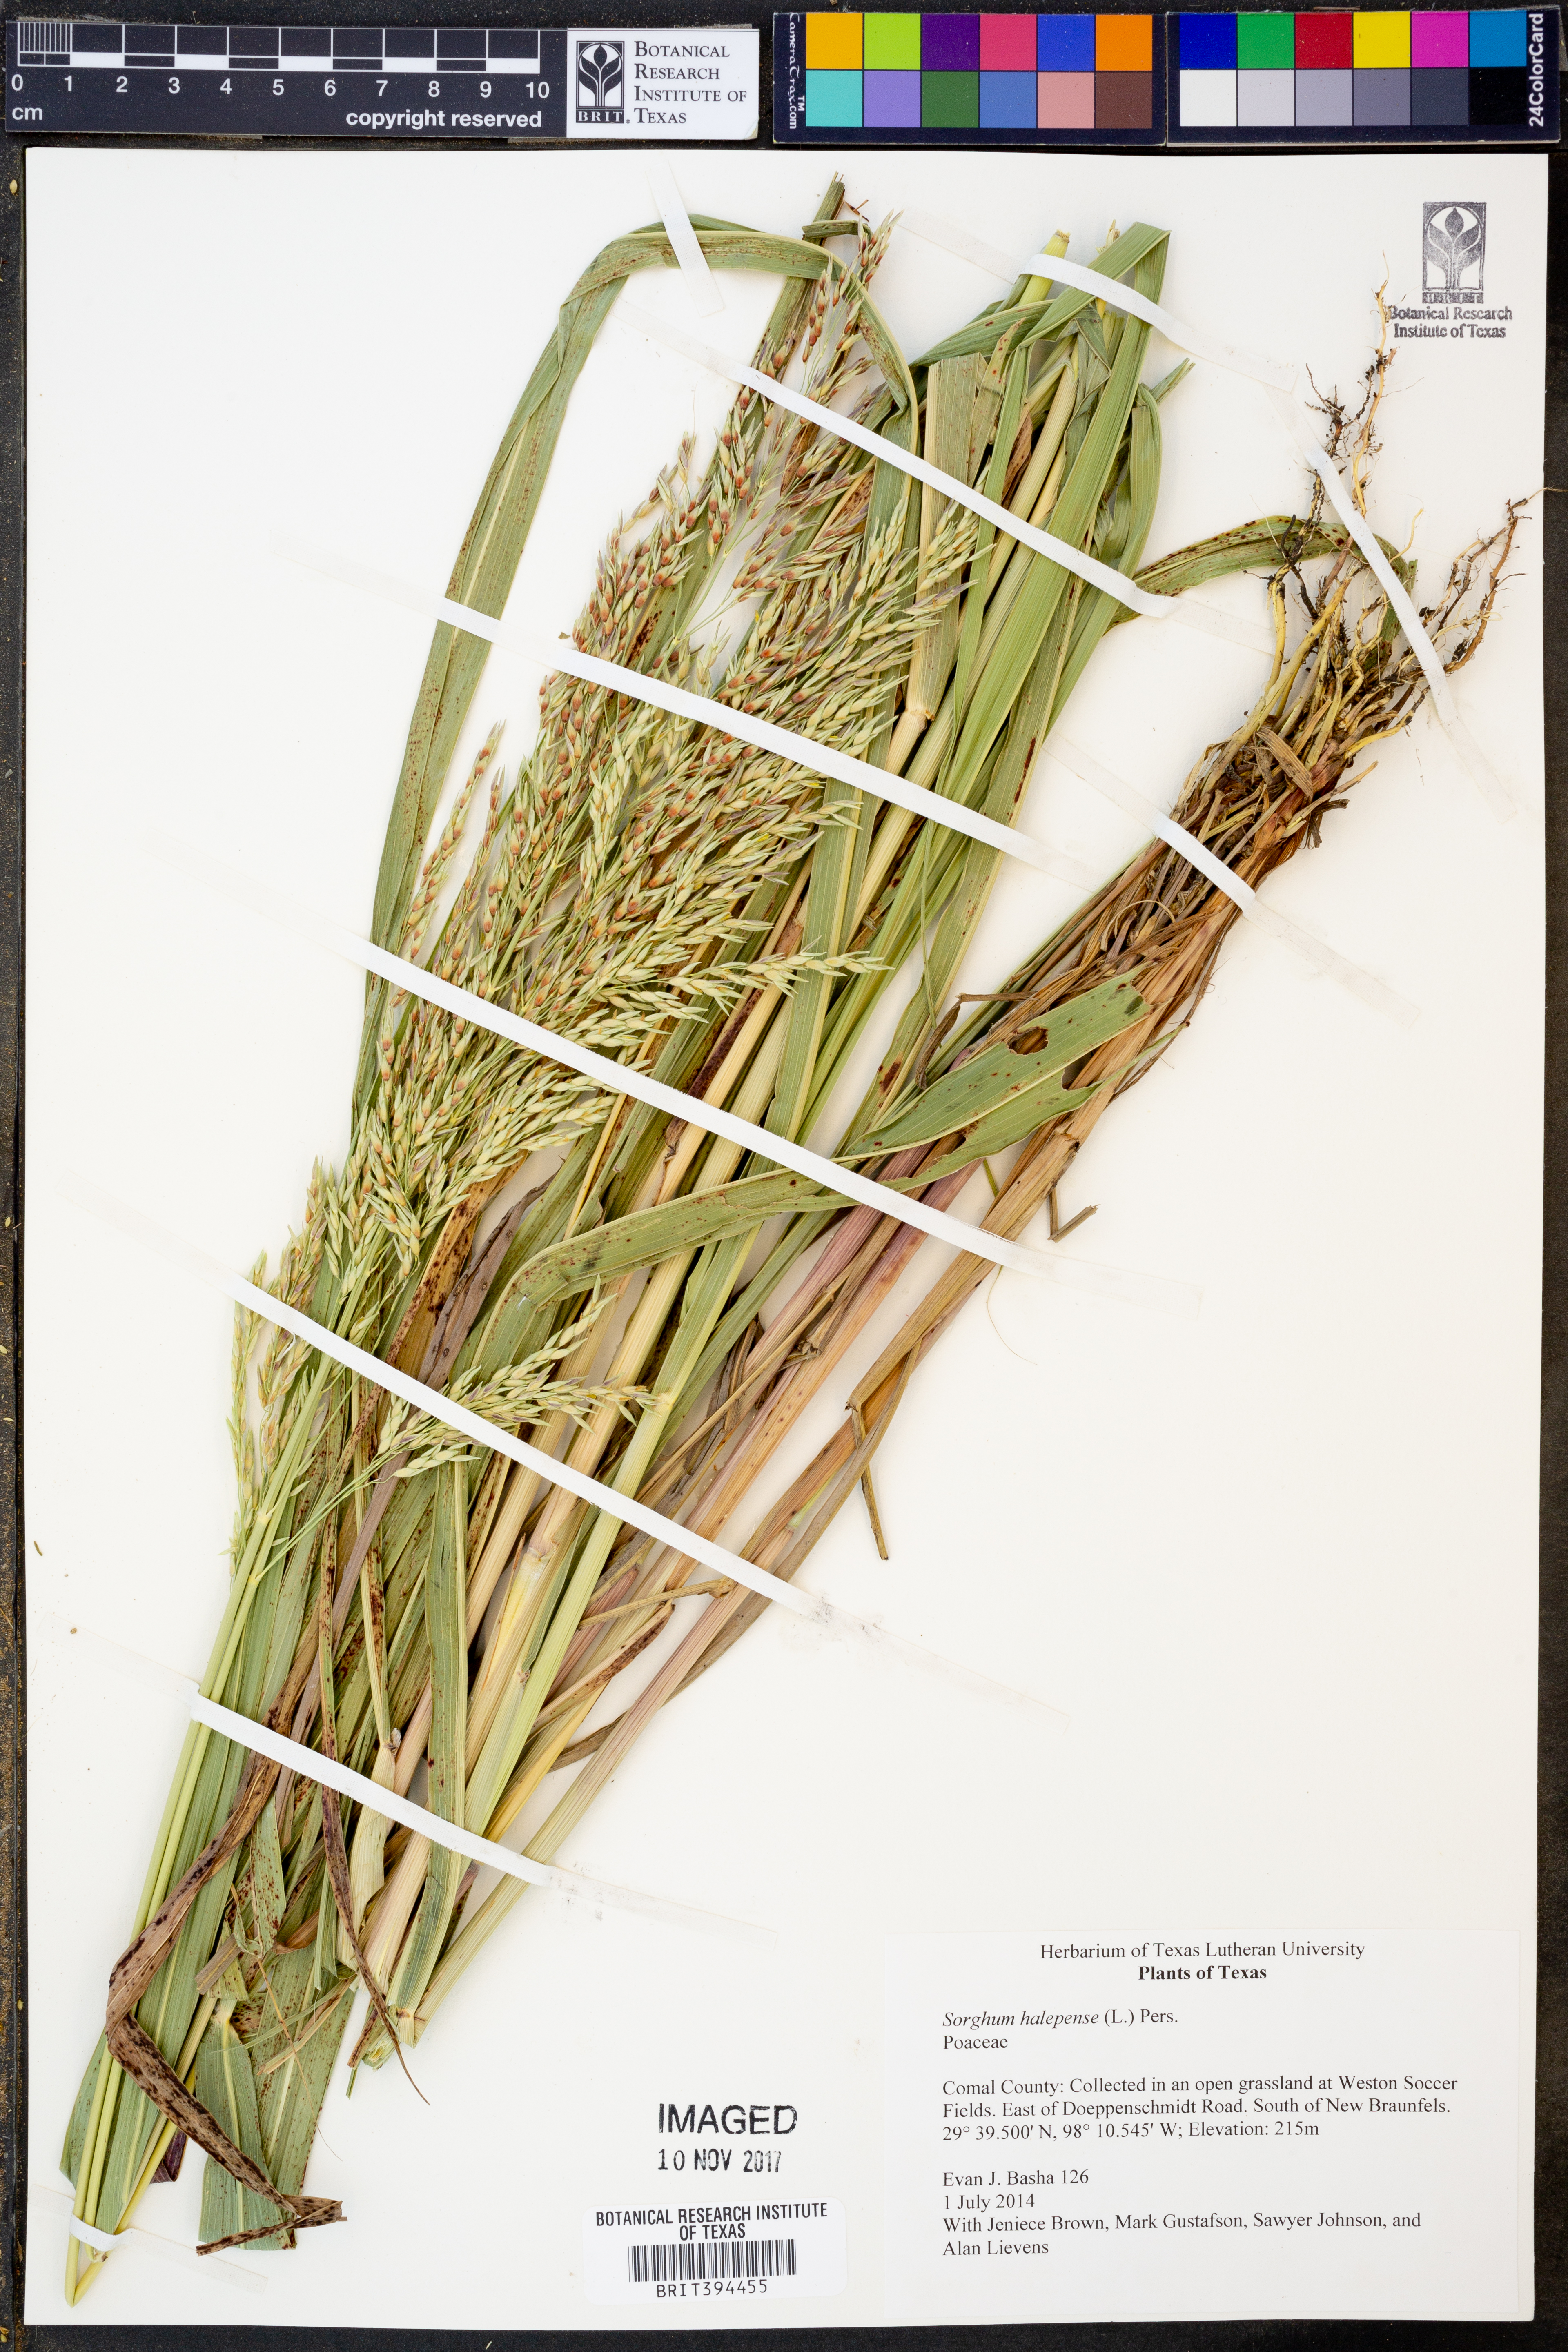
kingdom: Plantae
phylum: Tracheophyta
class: Liliopsida
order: Poales
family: Poaceae
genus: Sorghum
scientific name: Sorghum halepense
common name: Johnson-grass
